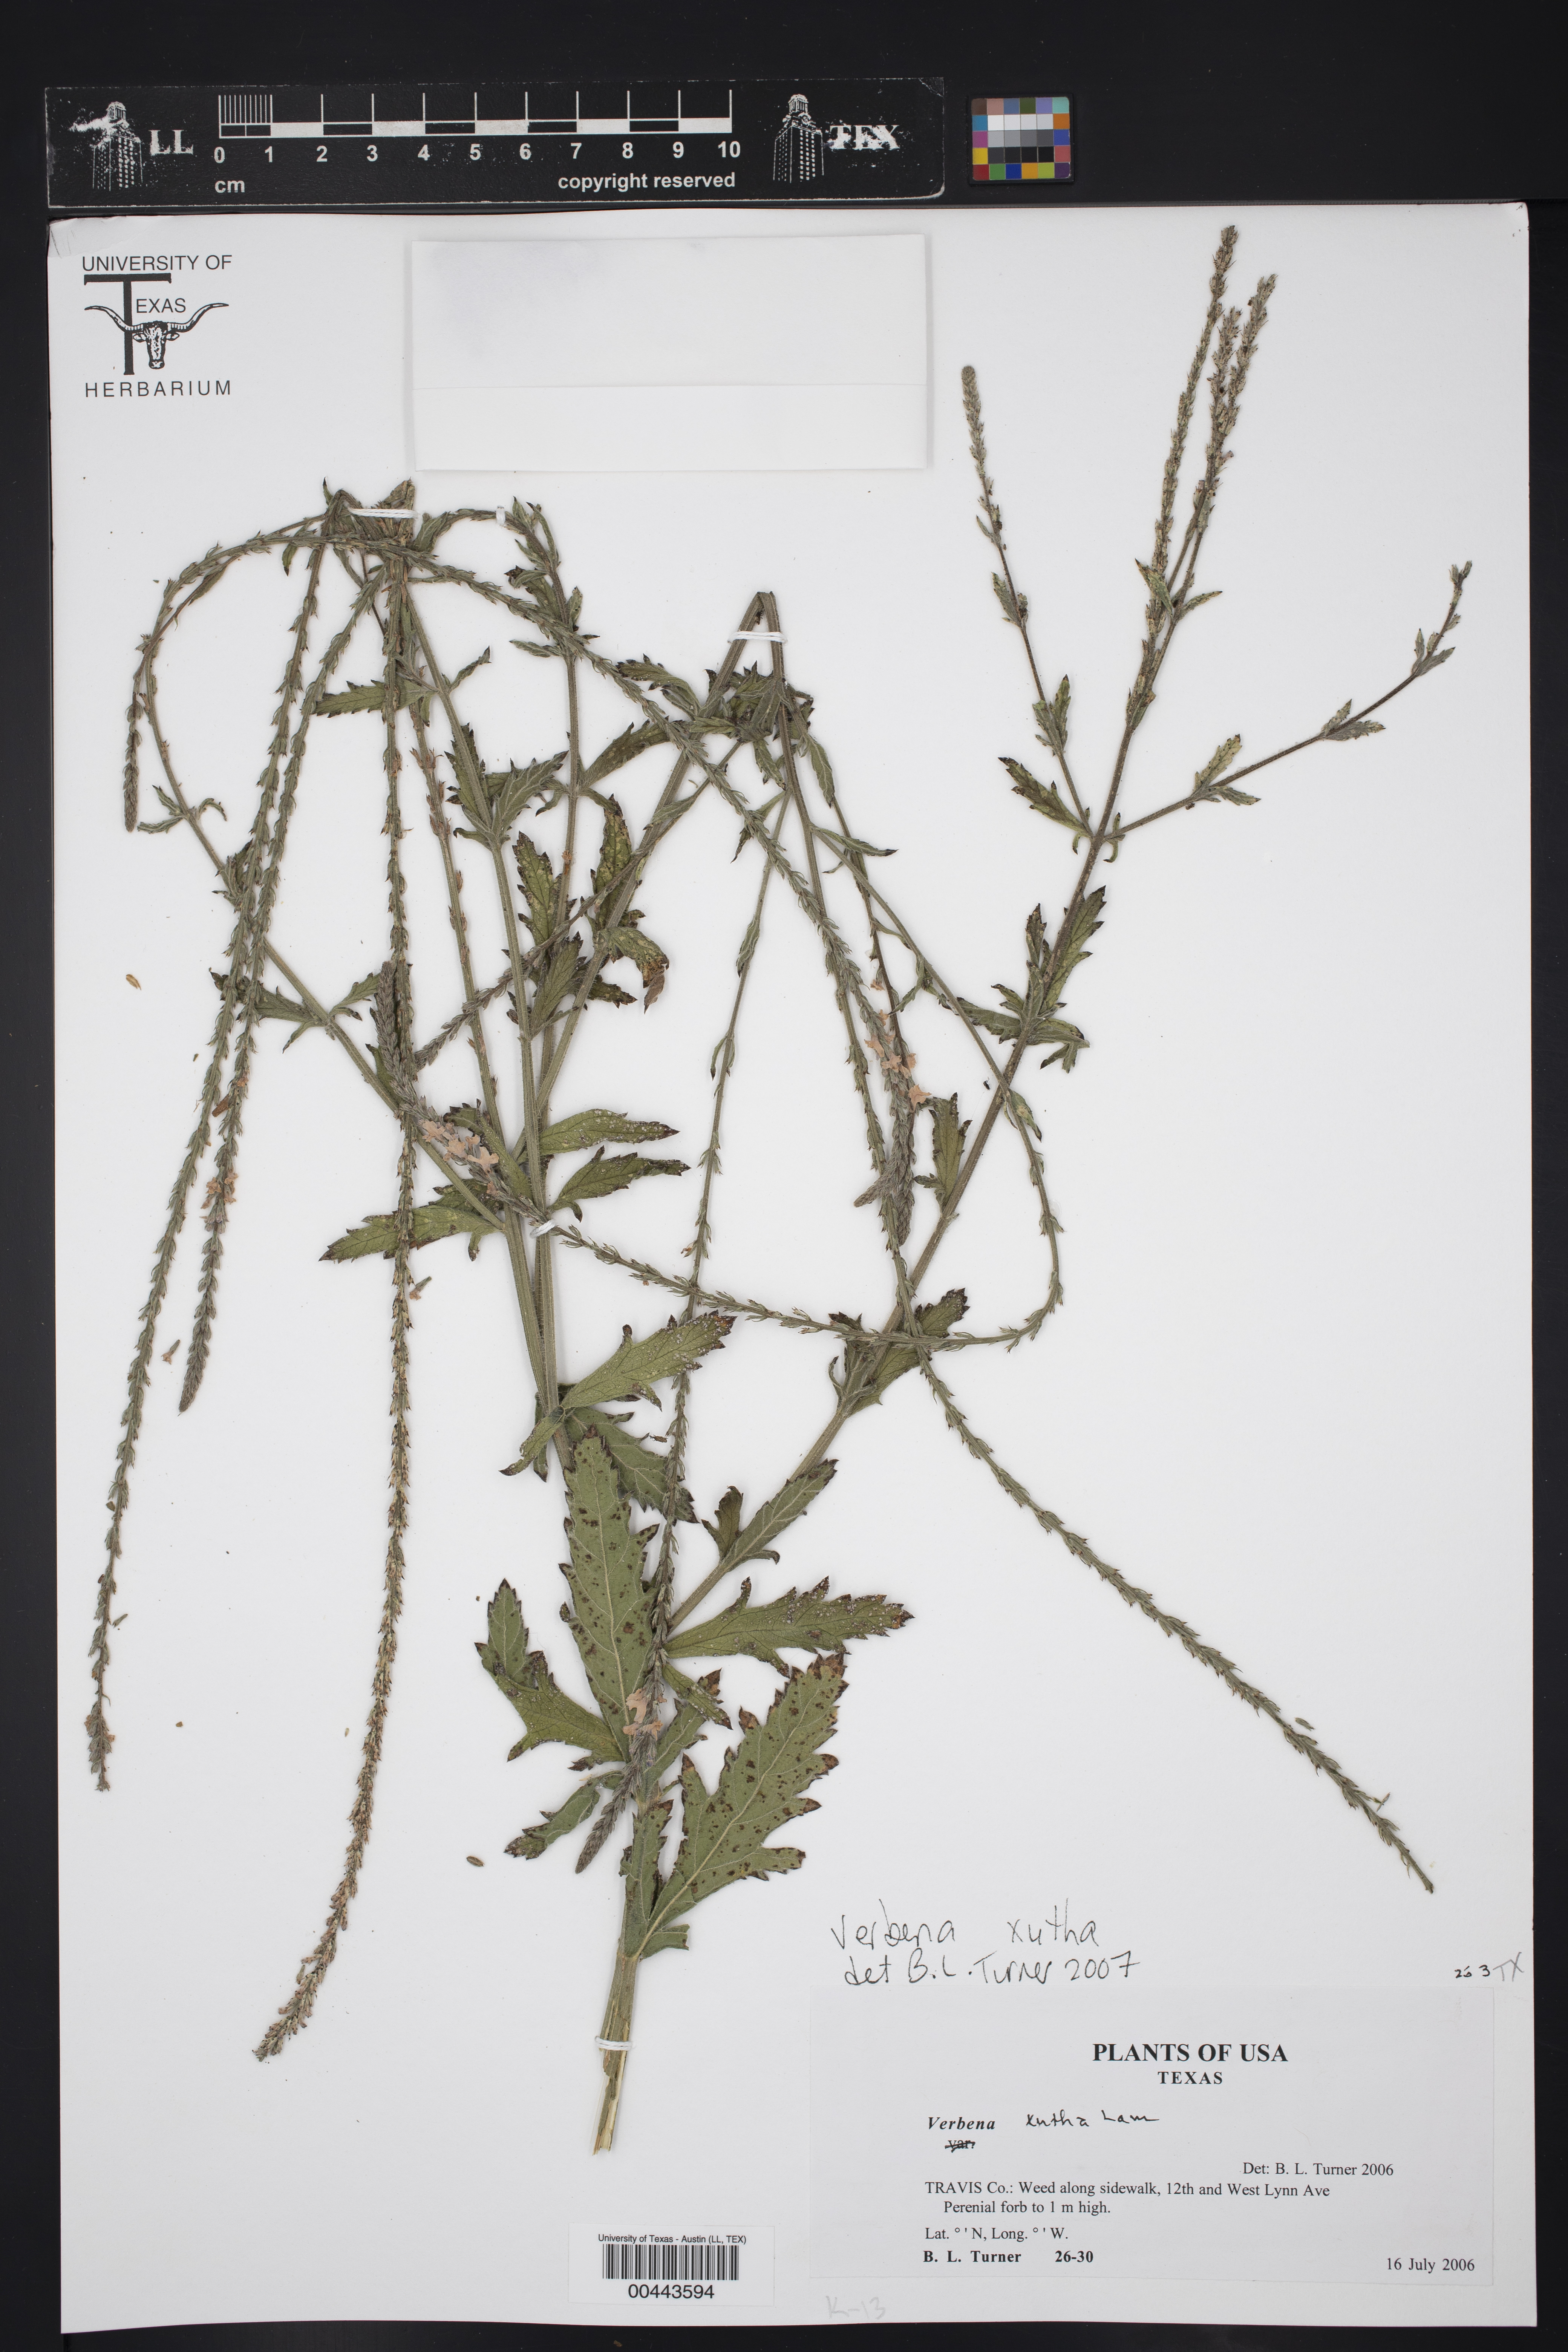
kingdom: Plantae
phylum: Tracheophyta
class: Magnoliopsida
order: Lamiales
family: Verbenaceae
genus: Verbena
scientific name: Verbena xutha
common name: Gulf vervain
